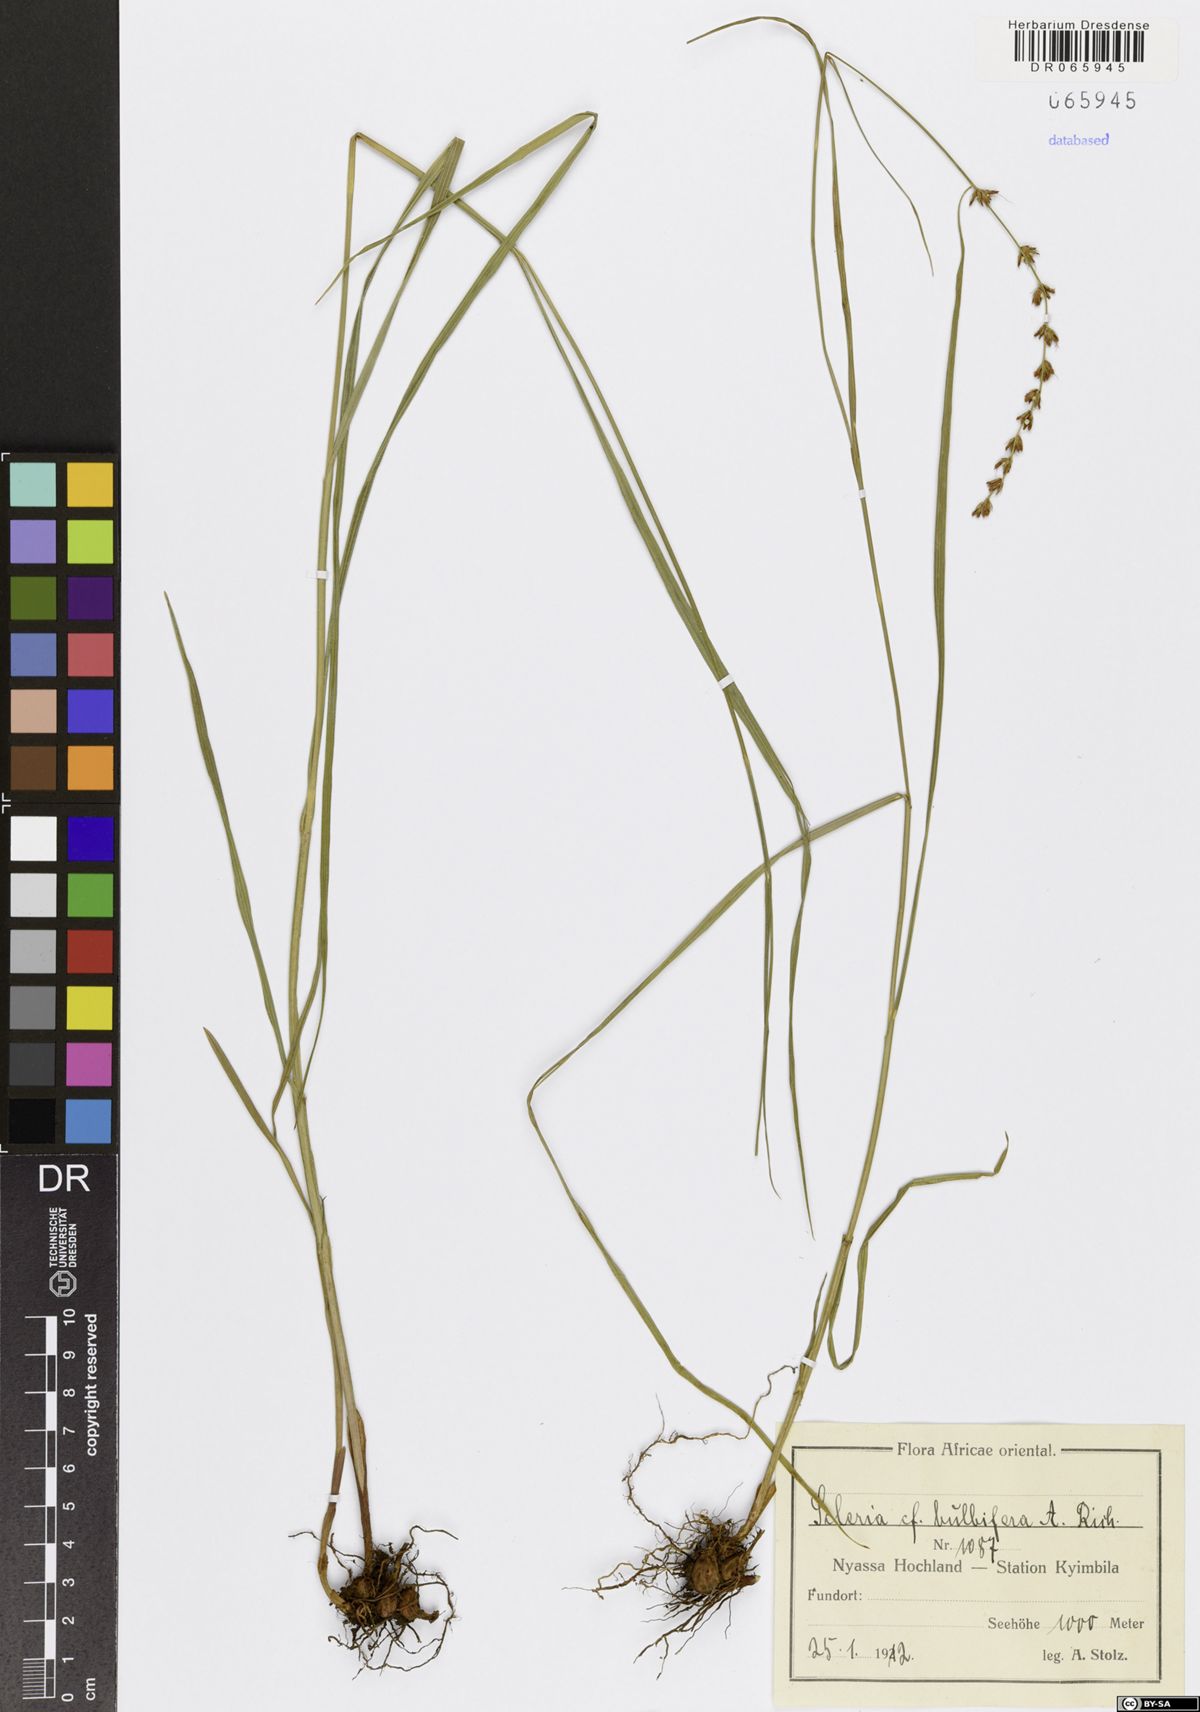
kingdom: Plantae
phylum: Tracheophyta
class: Liliopsida
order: Poales
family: Cyperaceae
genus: Scleria
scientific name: Scleria bulbifera
